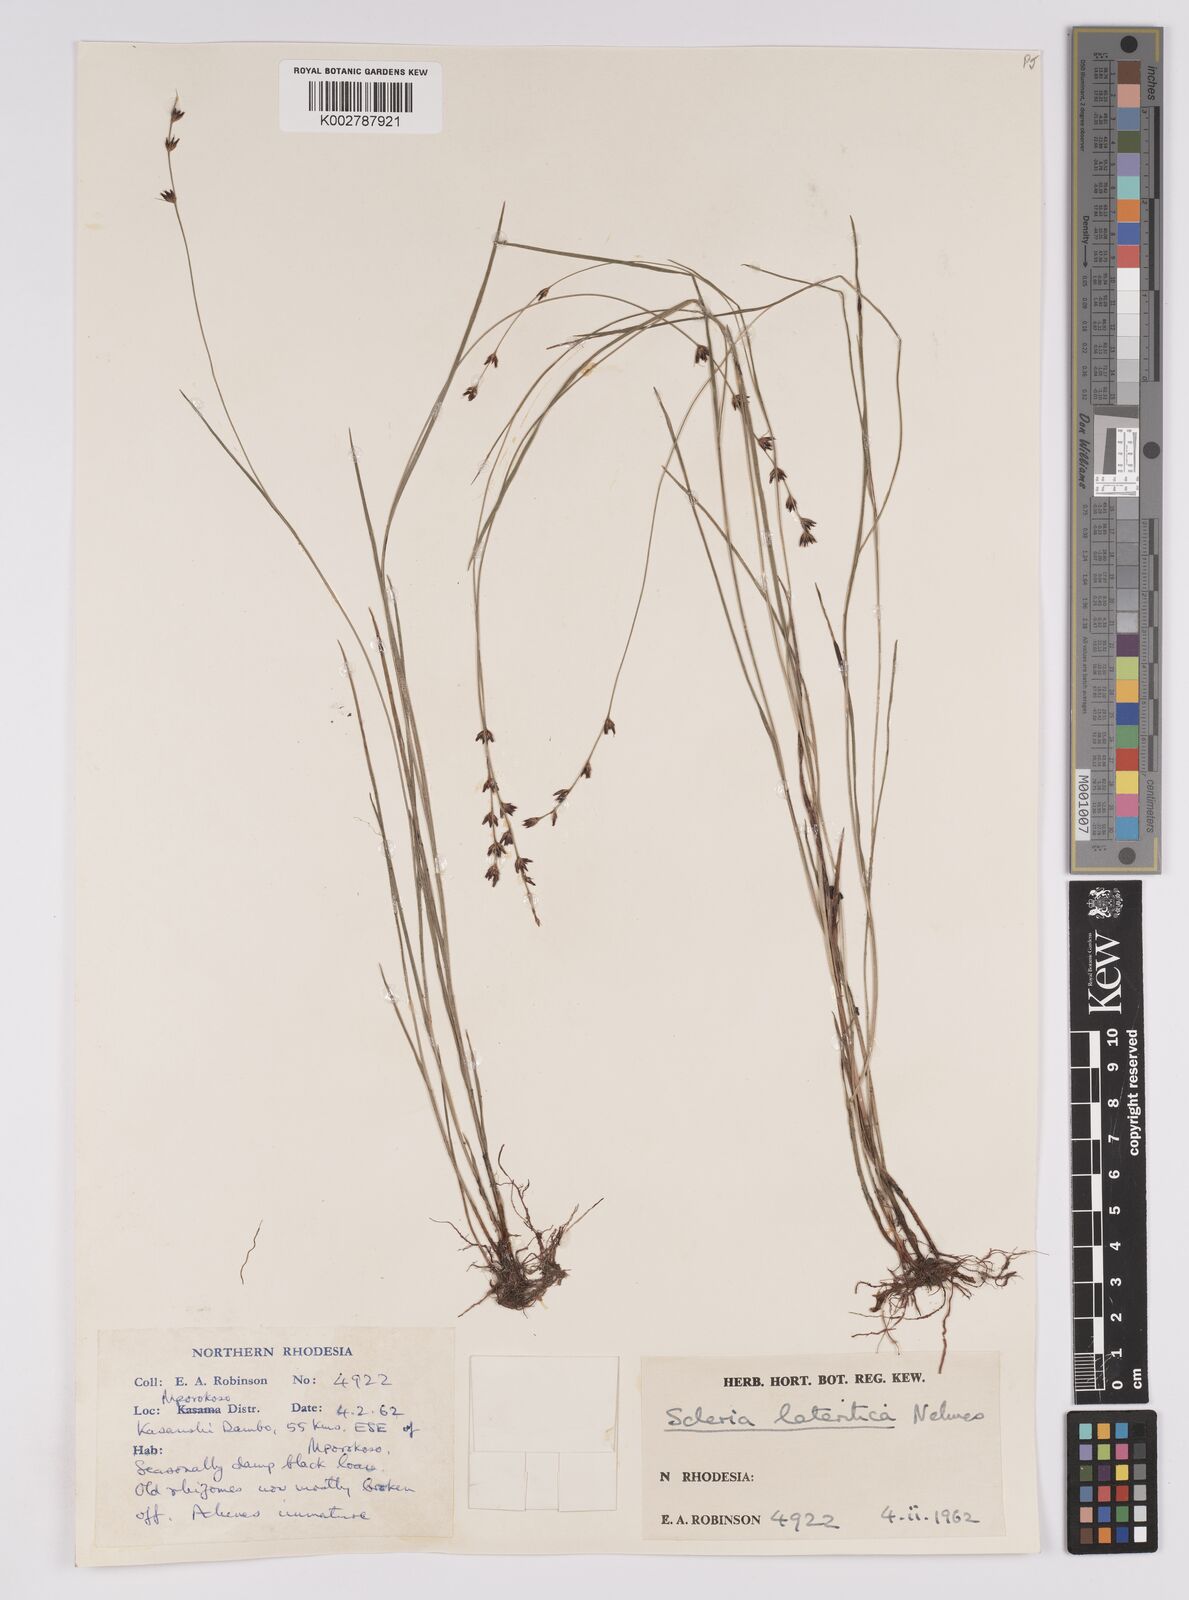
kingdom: Plantae
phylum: Tracheophyta
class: Liliopsida
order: Poales
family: Cyperaceae
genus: Scleria
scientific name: Scleria lateritica
